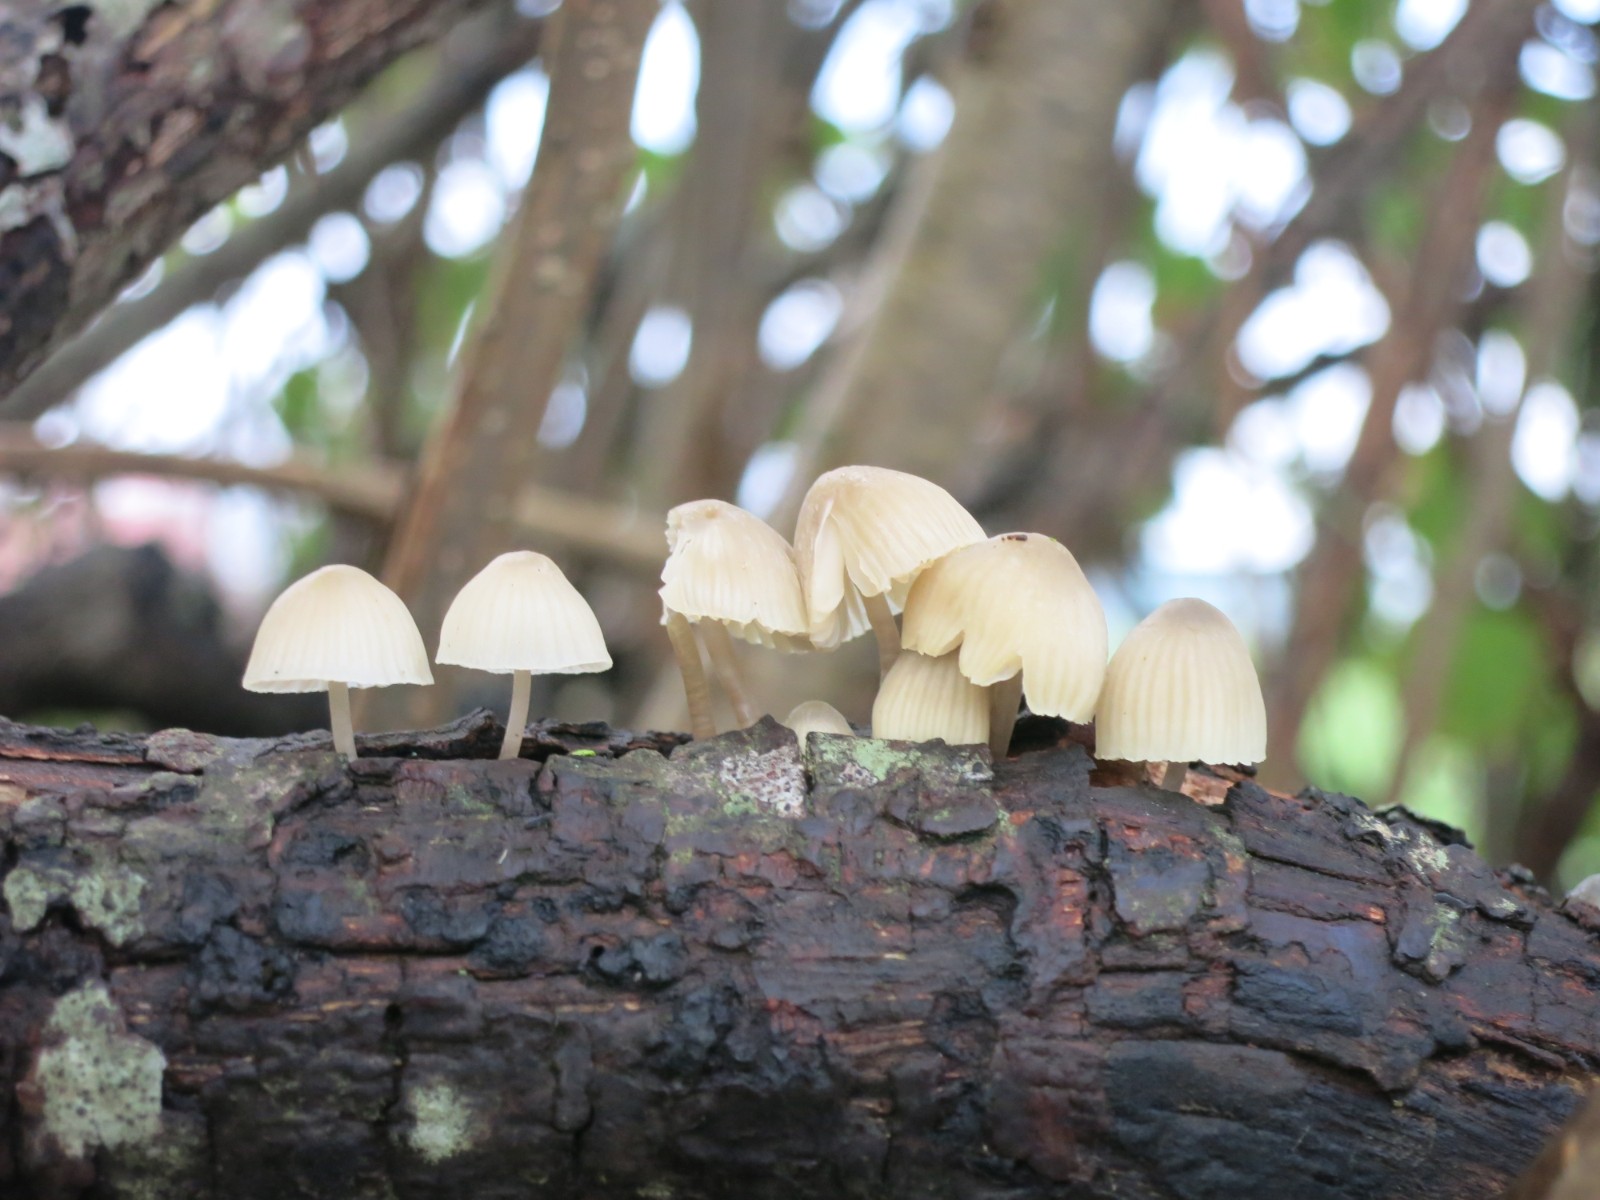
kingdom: Fungi
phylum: Basidiomycota
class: Agaricomycetes
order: Agaricales
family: Mycenaceae
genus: Mycena
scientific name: Mycena arcangeliana
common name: oliven-huesvamp
